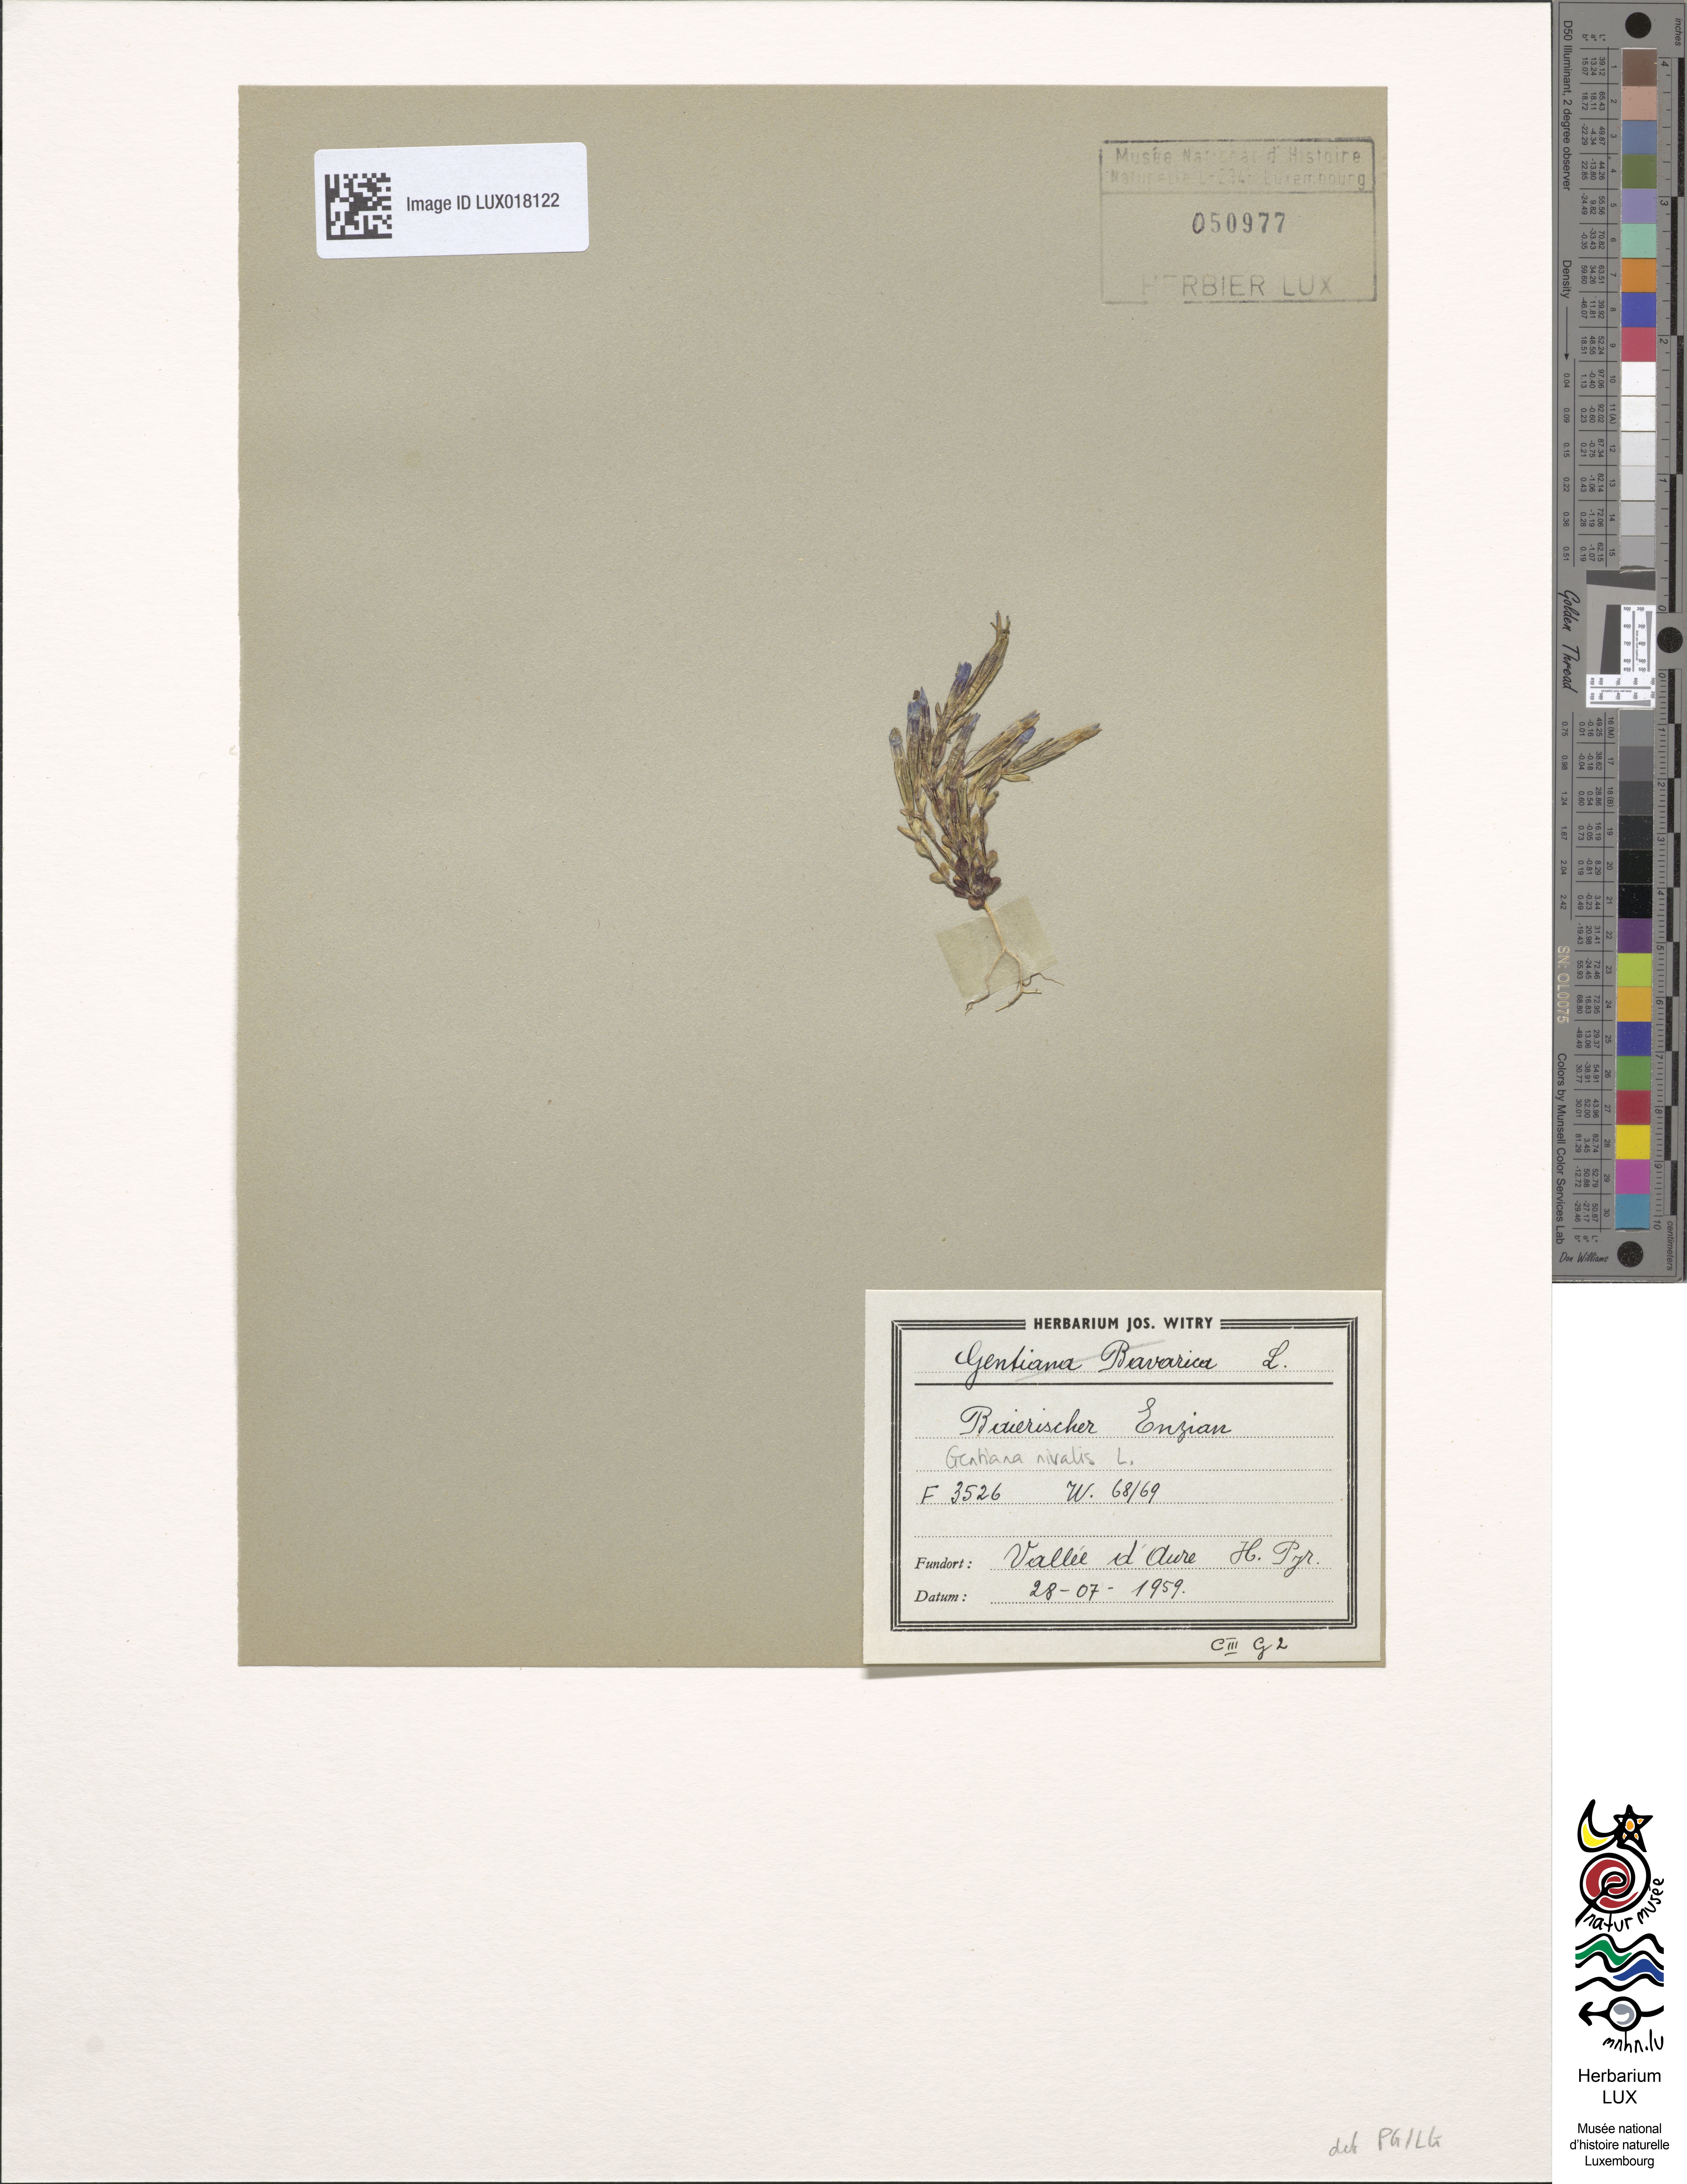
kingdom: Plantae
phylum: Tracheophyta
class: Magnoliopsida
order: Gentianales
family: Gentianaceae
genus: Gentiana
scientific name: Gentiana nivalis
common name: Alpine gentian
